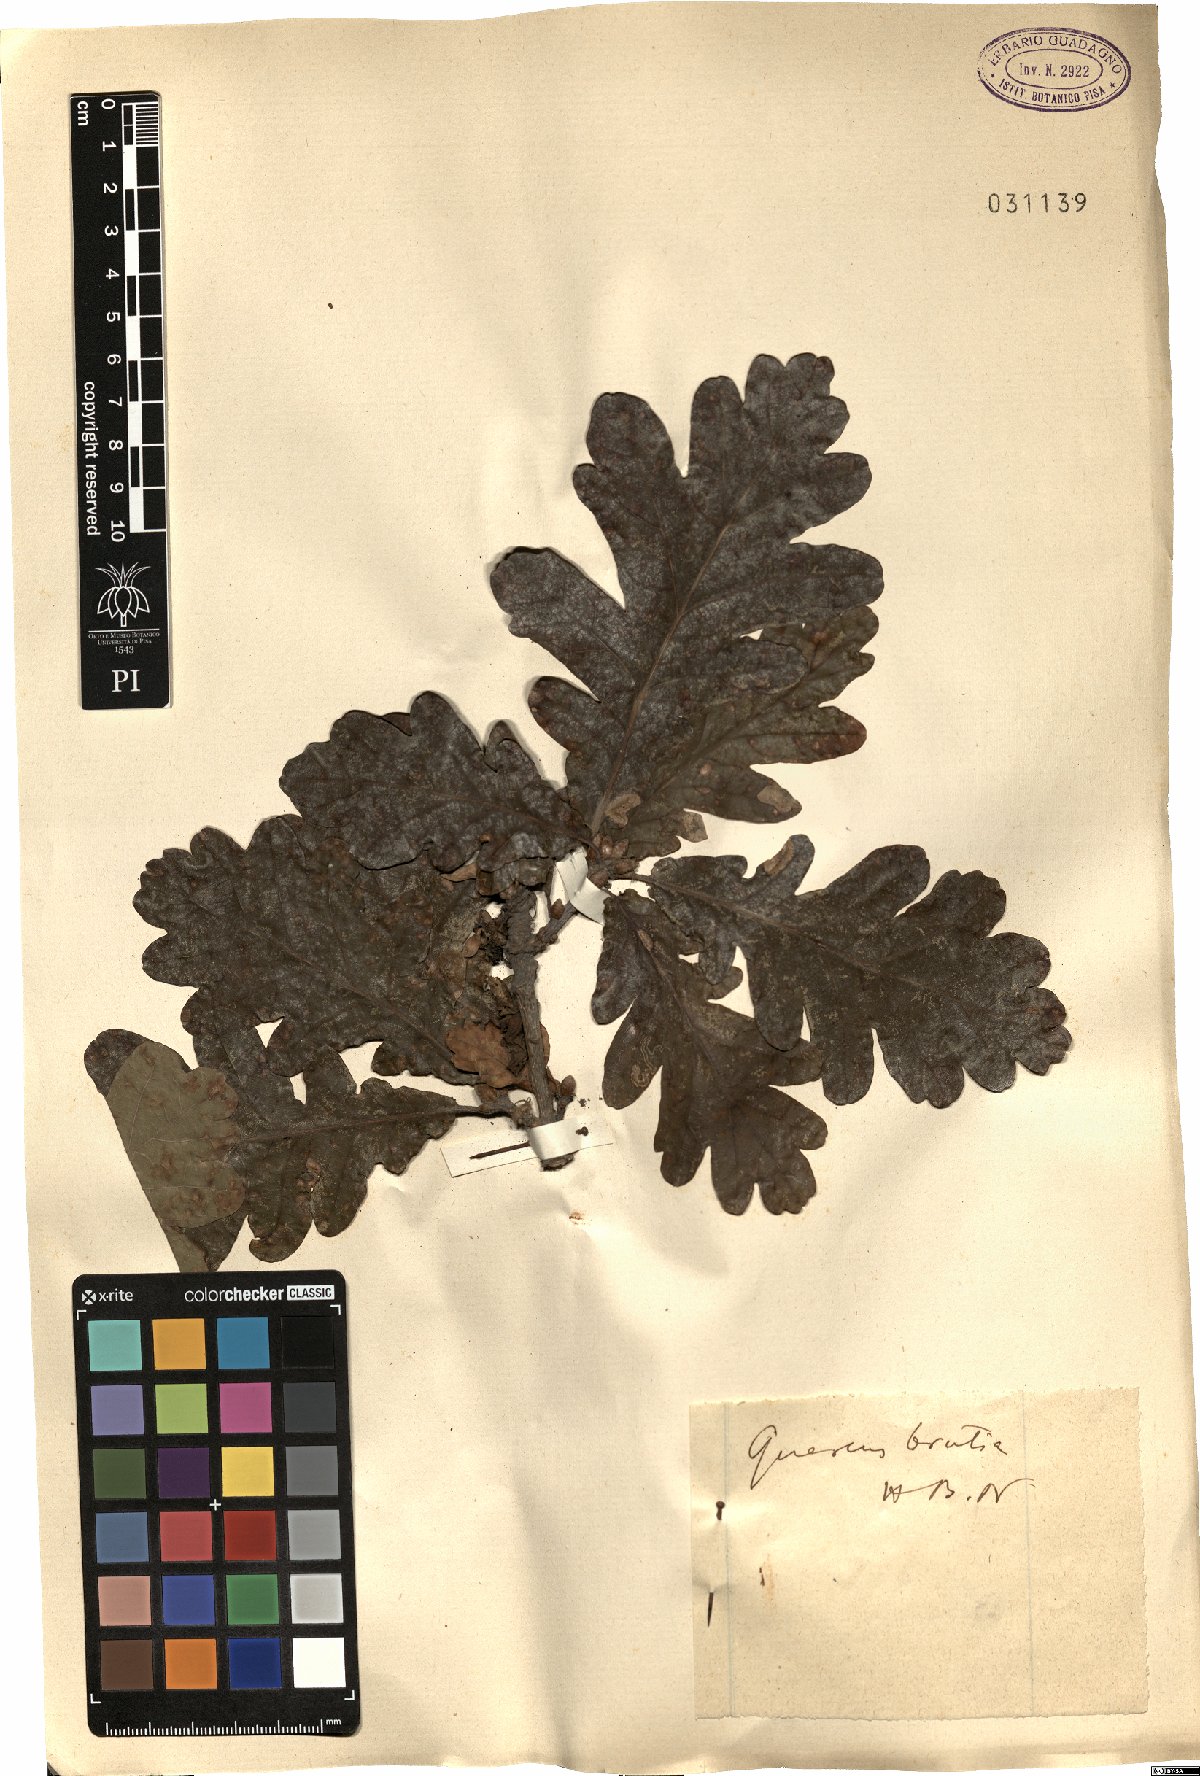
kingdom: Plantae
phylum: Tracheophyta
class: Magnoliopsida
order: Fagales
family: Fagaceae
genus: Quercus
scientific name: Quercus robur
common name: Pedunculate oak
